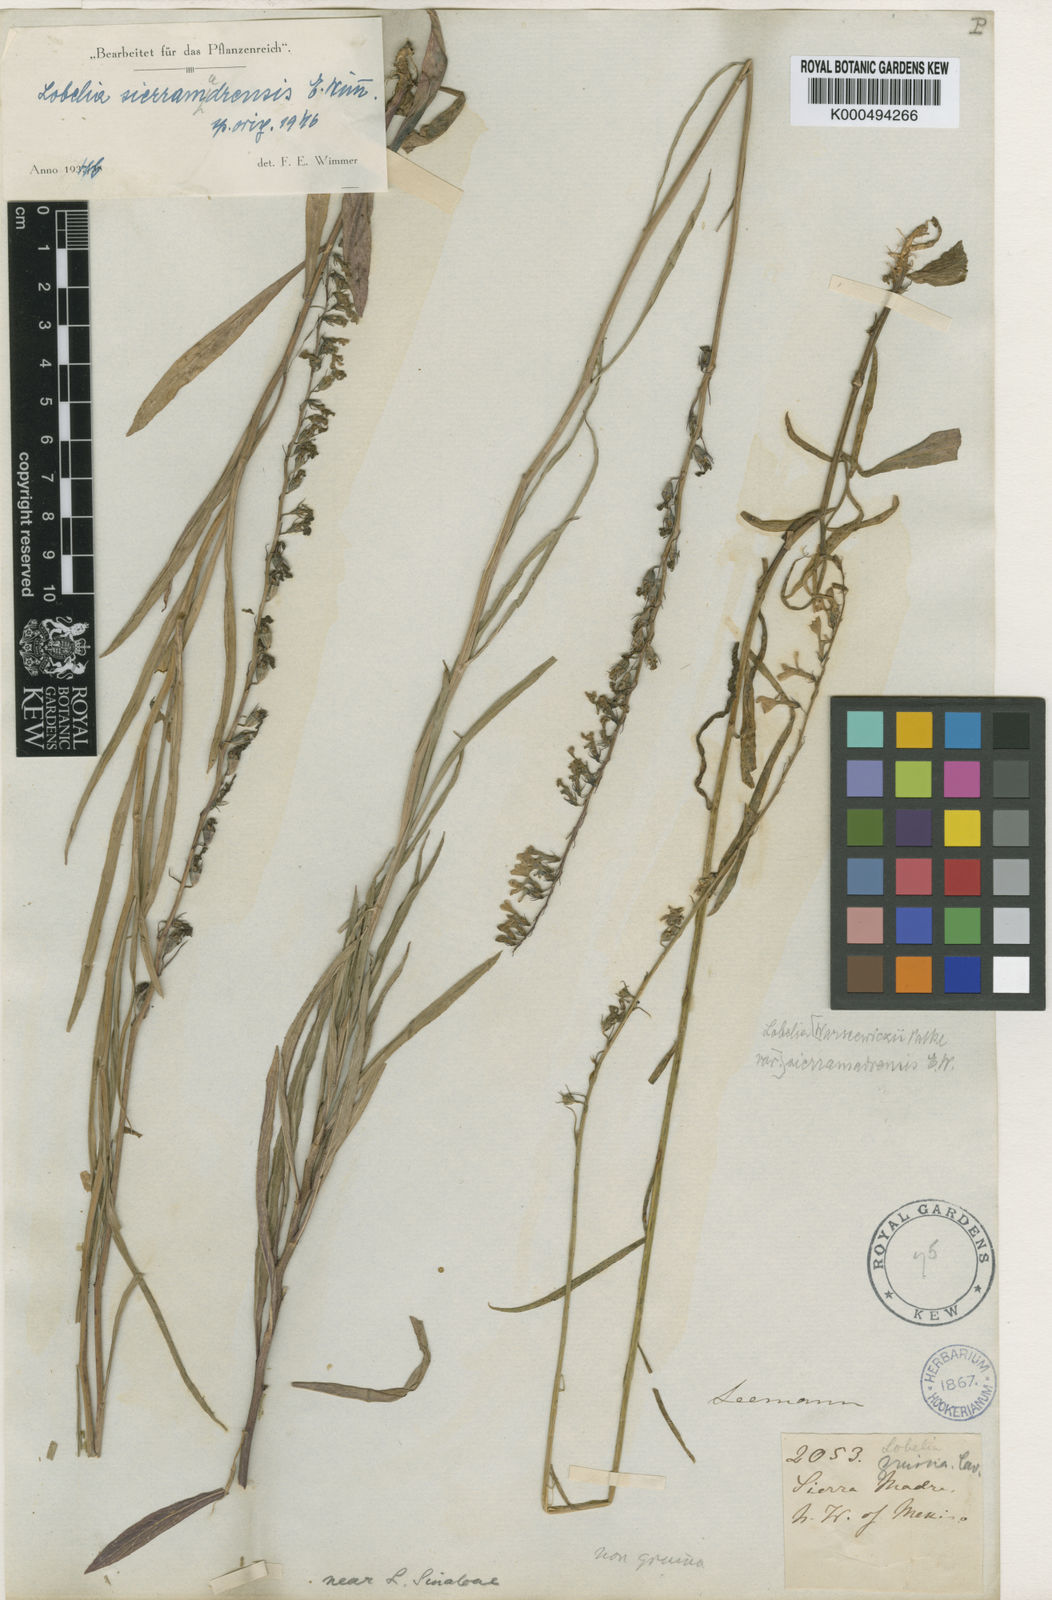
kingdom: Plantae
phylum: Tracheophyta
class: Magnoliopsida
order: Asterales
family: Campanulaceae
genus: Lobelia
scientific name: Lobelia irasuensis
